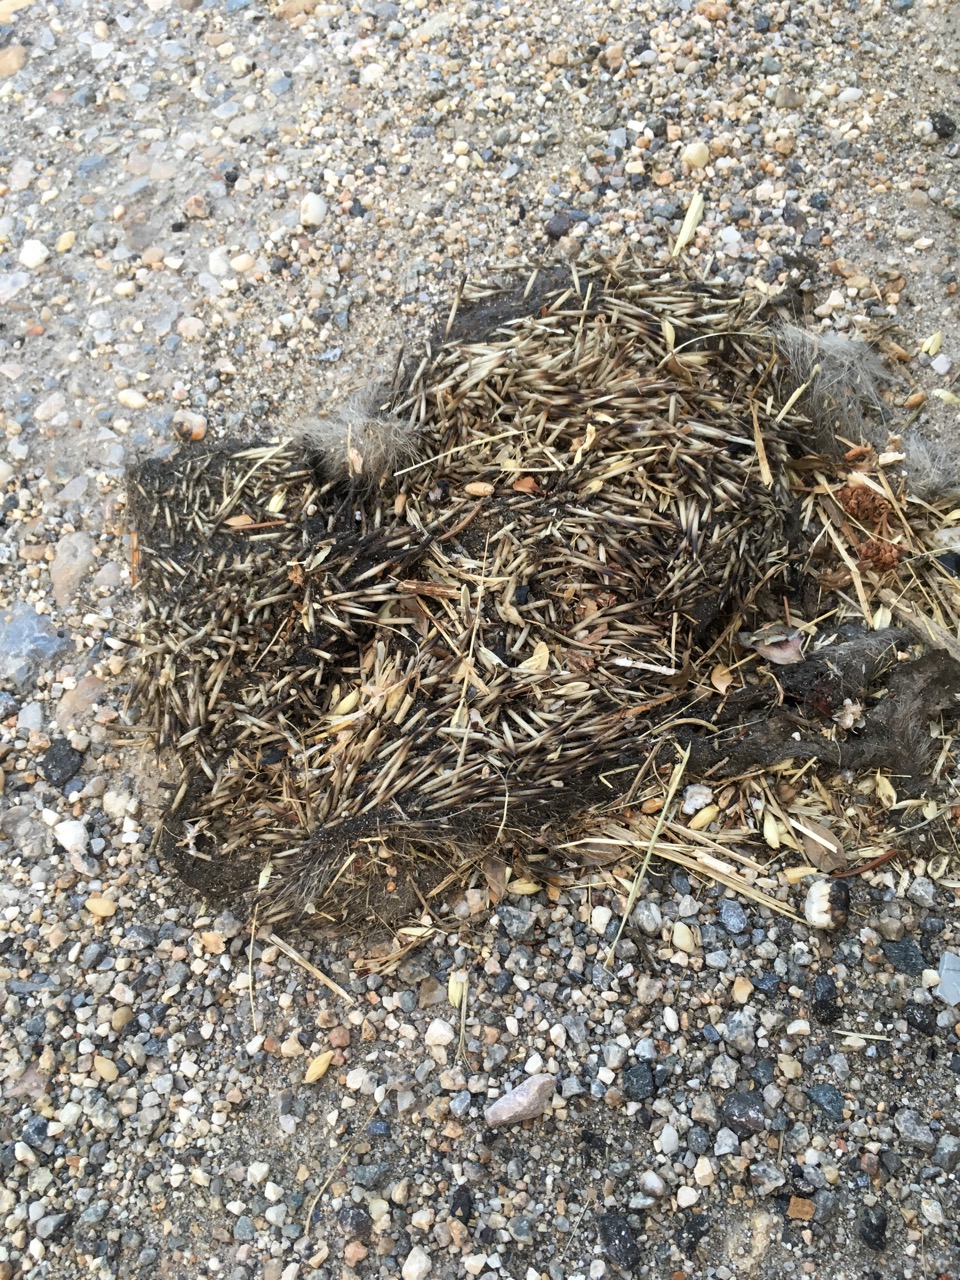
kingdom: Animalia
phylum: Chordata
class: Mammalia
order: Erinaceomorpha
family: Erinaceidae
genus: Erinaceus
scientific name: Erinaceus
